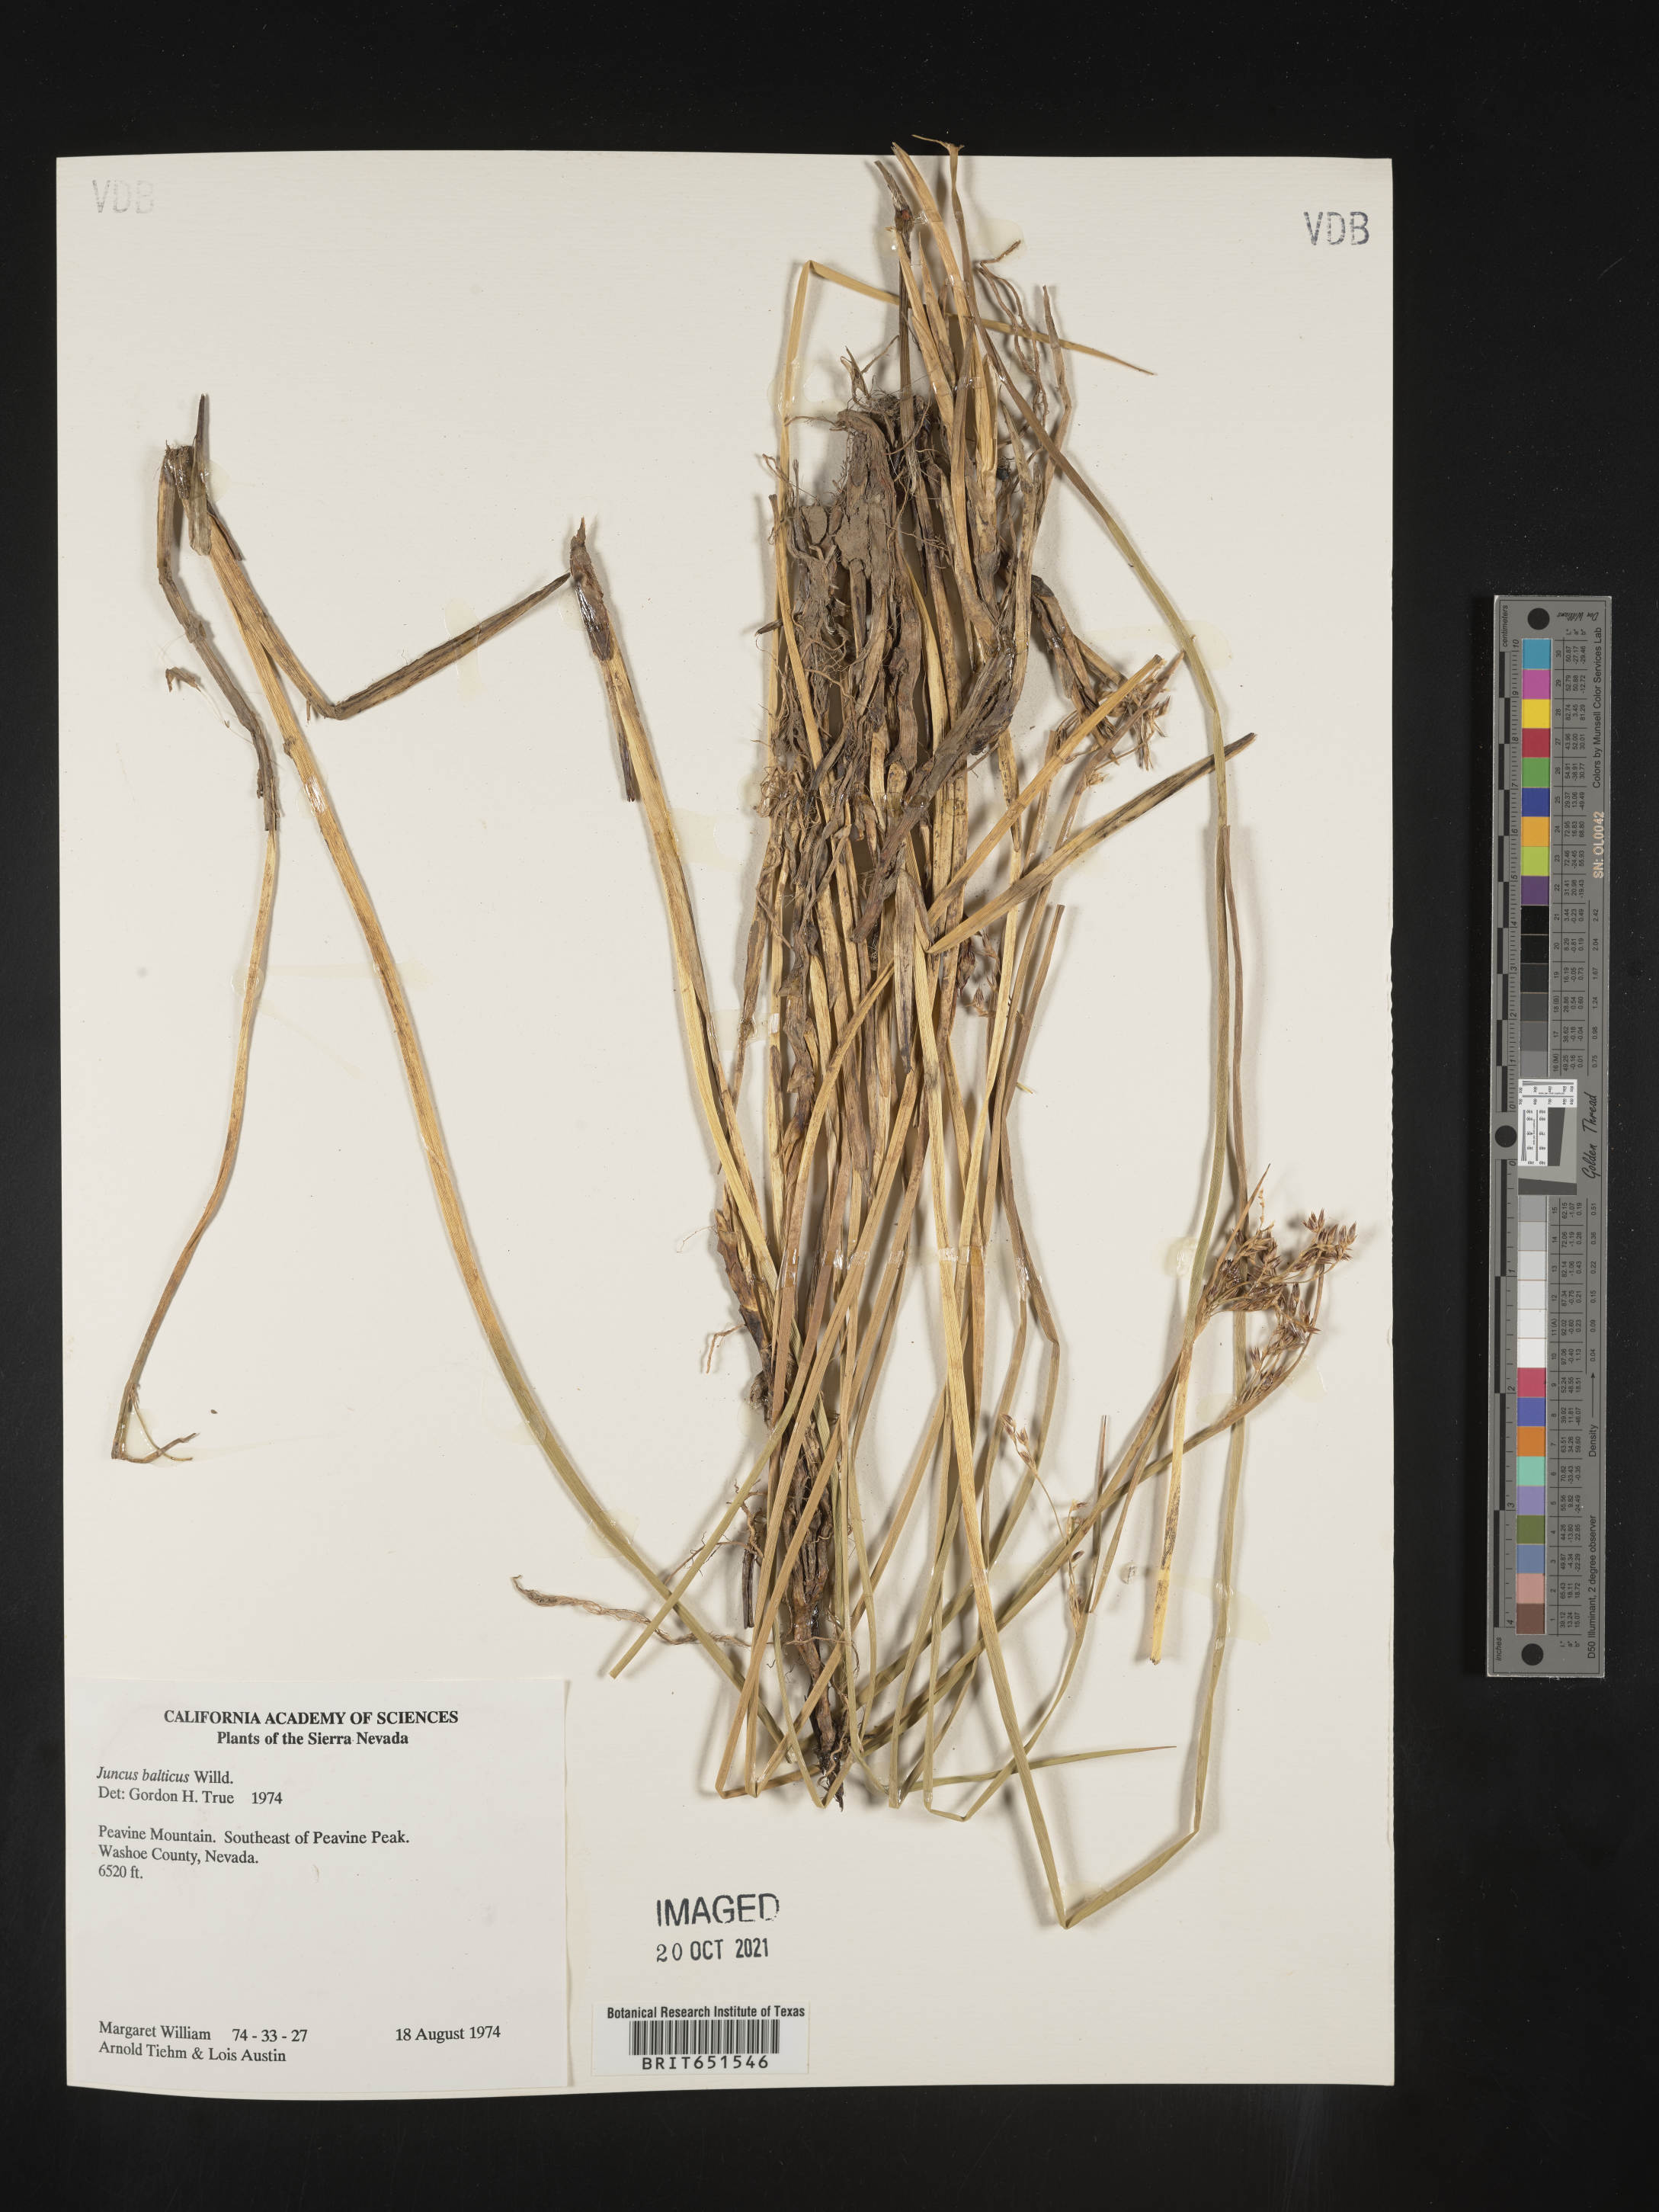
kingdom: Plantae
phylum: Tracheophyta
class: Liliopsida
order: Poales
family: Juncaceae
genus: Juncus
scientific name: Juncus balticus
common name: Baltic rush
